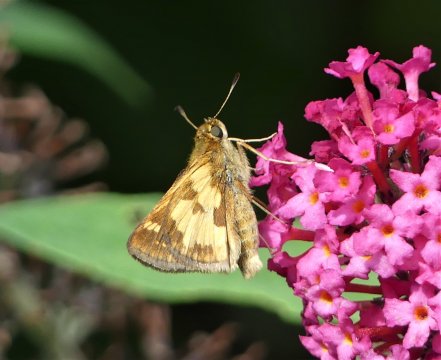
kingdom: Animalia
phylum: Arthropoda
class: Insecta
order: Lepidoptera
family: Hesperiidae
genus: Polites
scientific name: Polites coras
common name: Peck's Skipper
